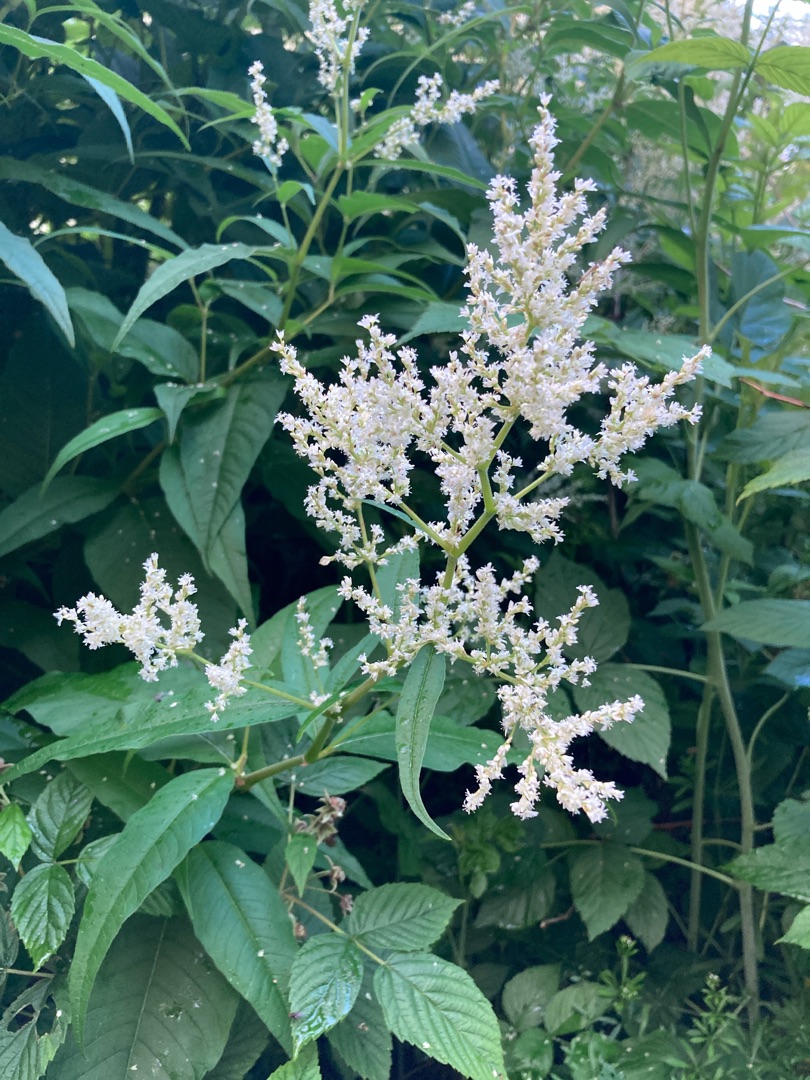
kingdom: Plantae
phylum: Tracheophyta
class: Magnoliopsida
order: Caryophyllales
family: Polygonaceae
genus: Koenigia
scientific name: Koenigia fennica
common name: Finsk pileurt
